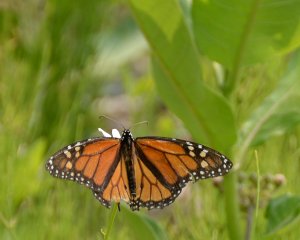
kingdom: Animalia
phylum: Arthropoda
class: Insecta
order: Lepidoptera
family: Nymphalidae
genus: Danaus
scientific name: Danaus plexippus
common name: Monarch
